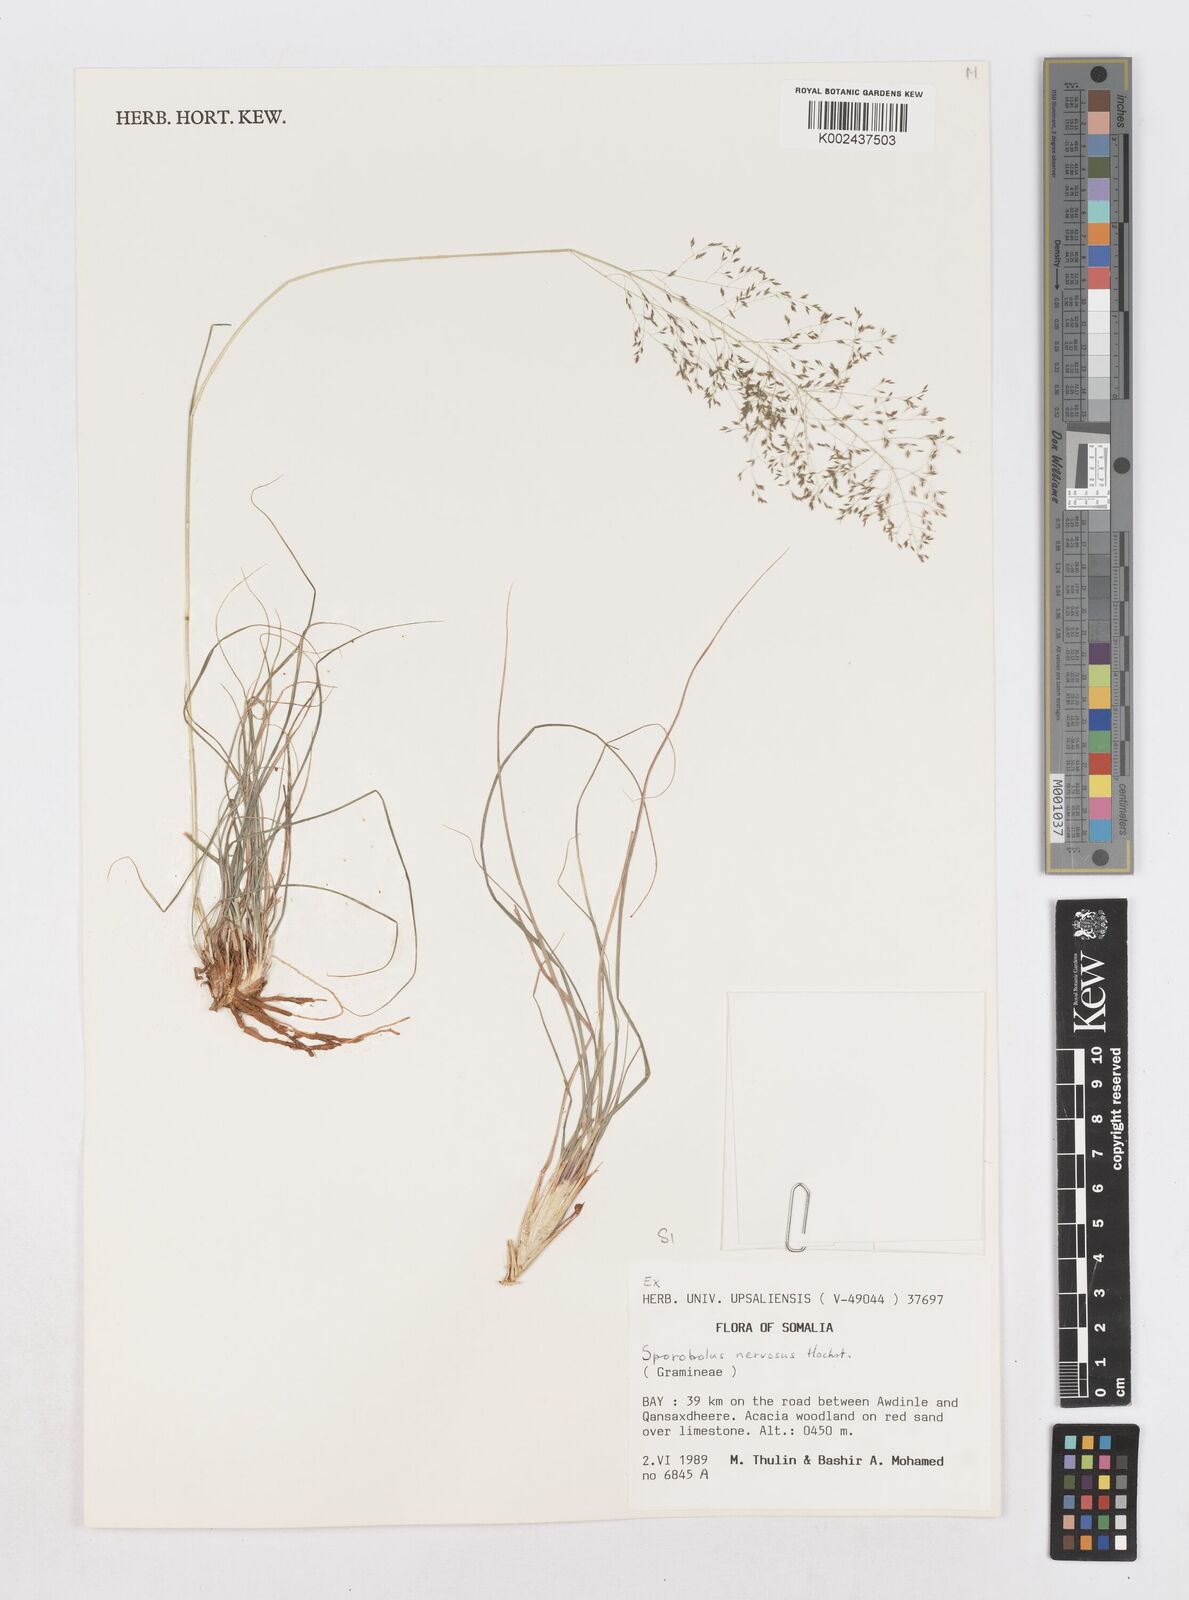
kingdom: Plantae
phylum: Tracheophyta
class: Liliopsida
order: Poales
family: Poaceae
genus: Sporobolus
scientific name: Sporobolus nervosus
